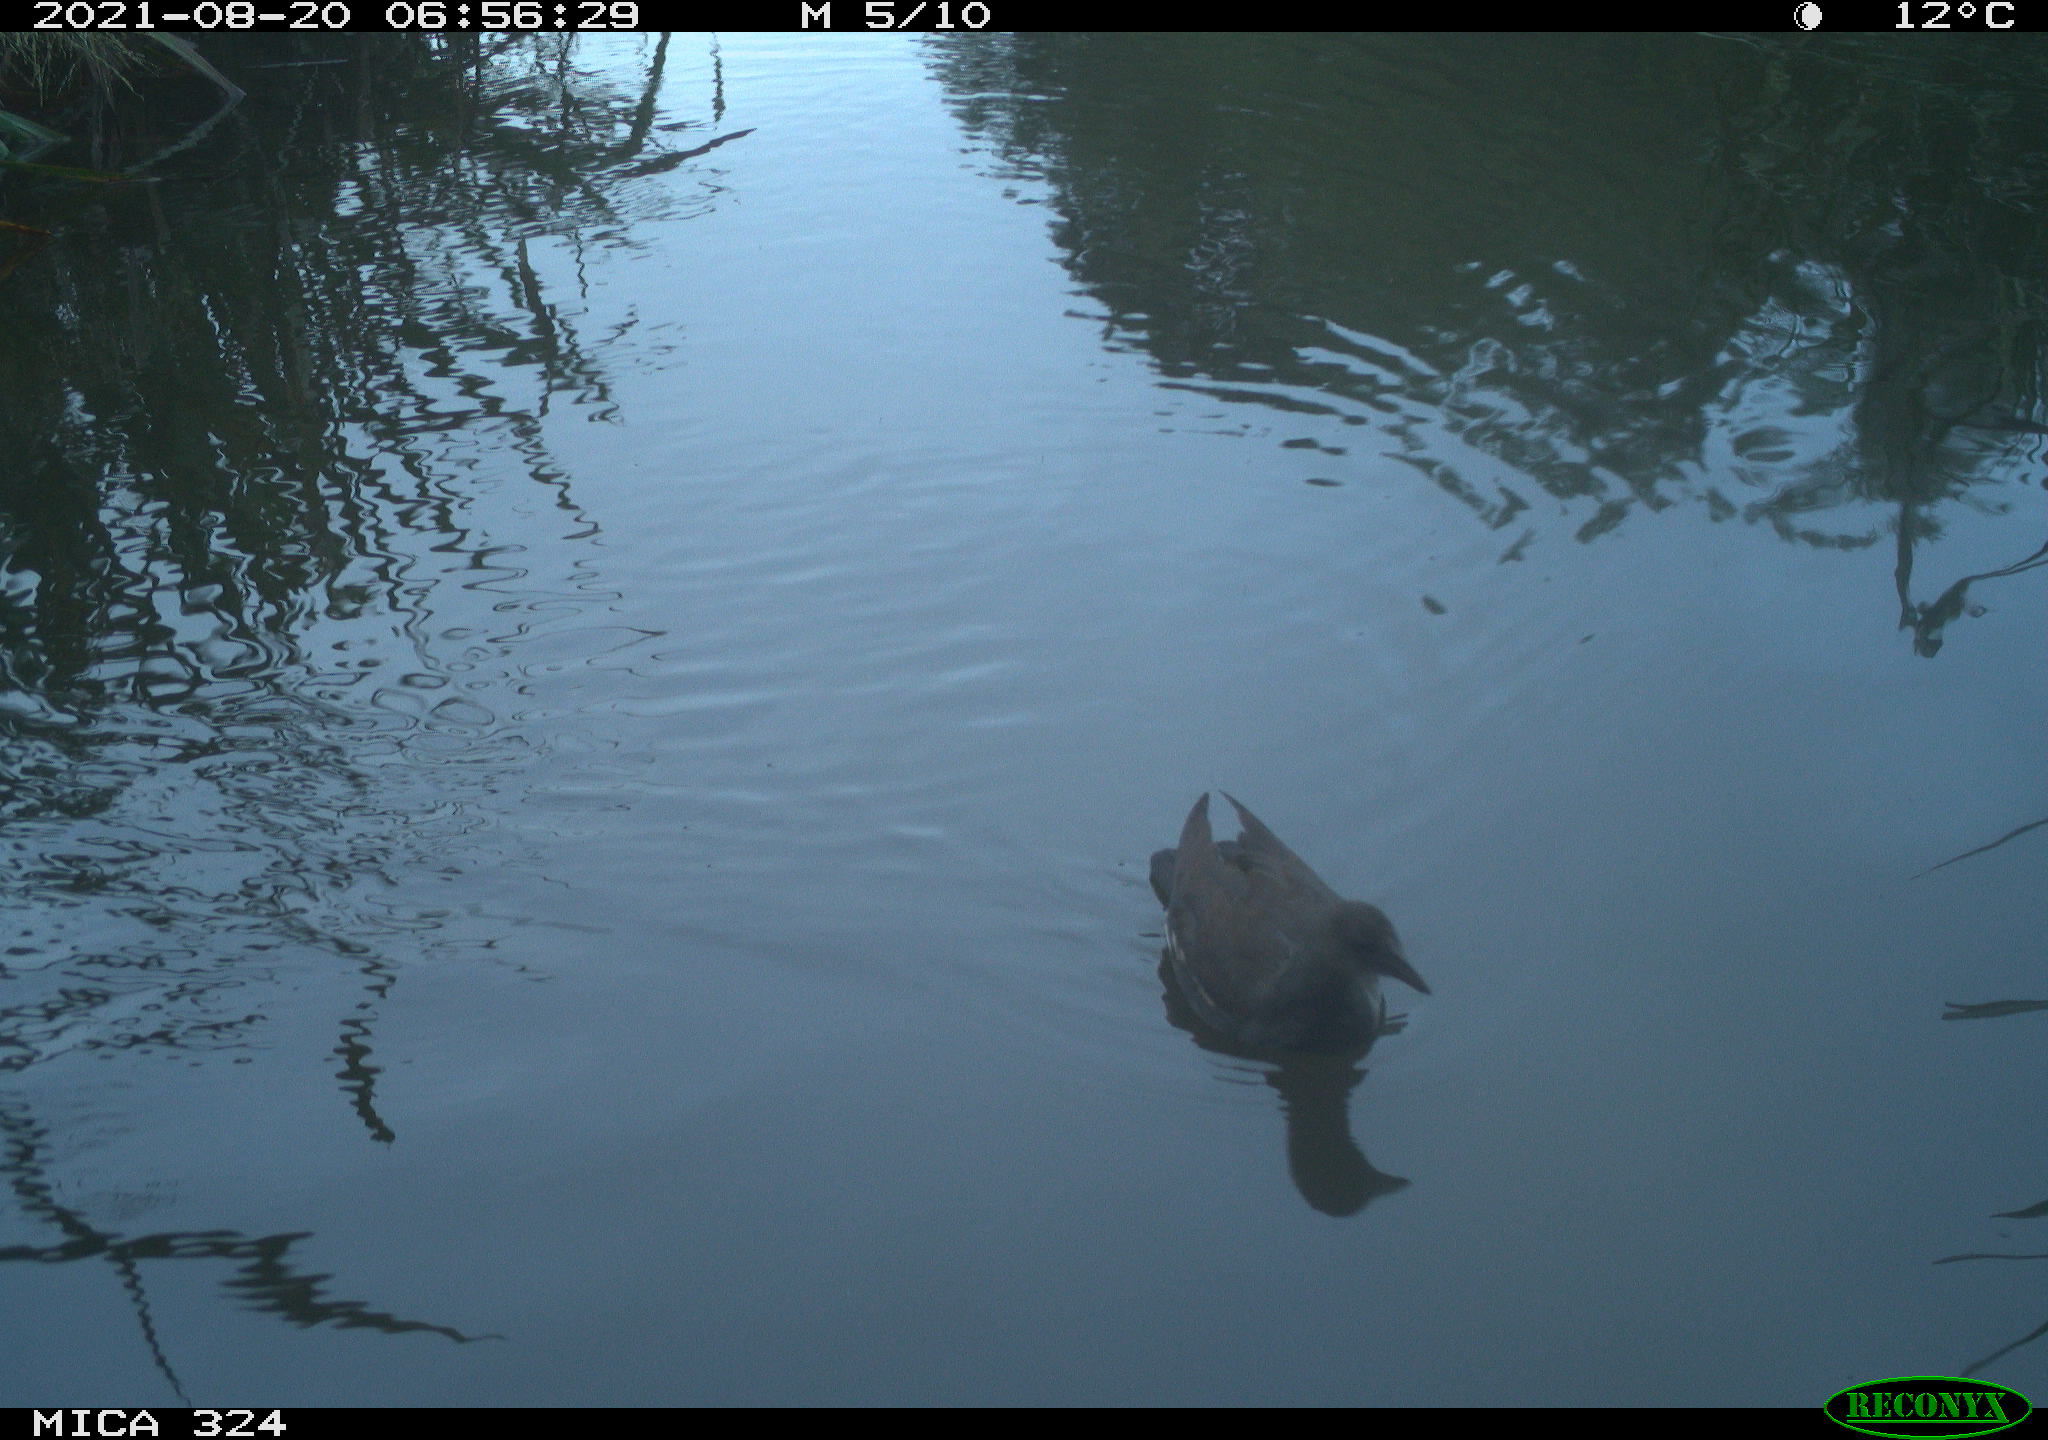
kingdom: Animalia
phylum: Chordata
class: Aves
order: Gruiformes
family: Rallidae
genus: Gallinula
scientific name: Gallinula chloropus
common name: Common moorhen
